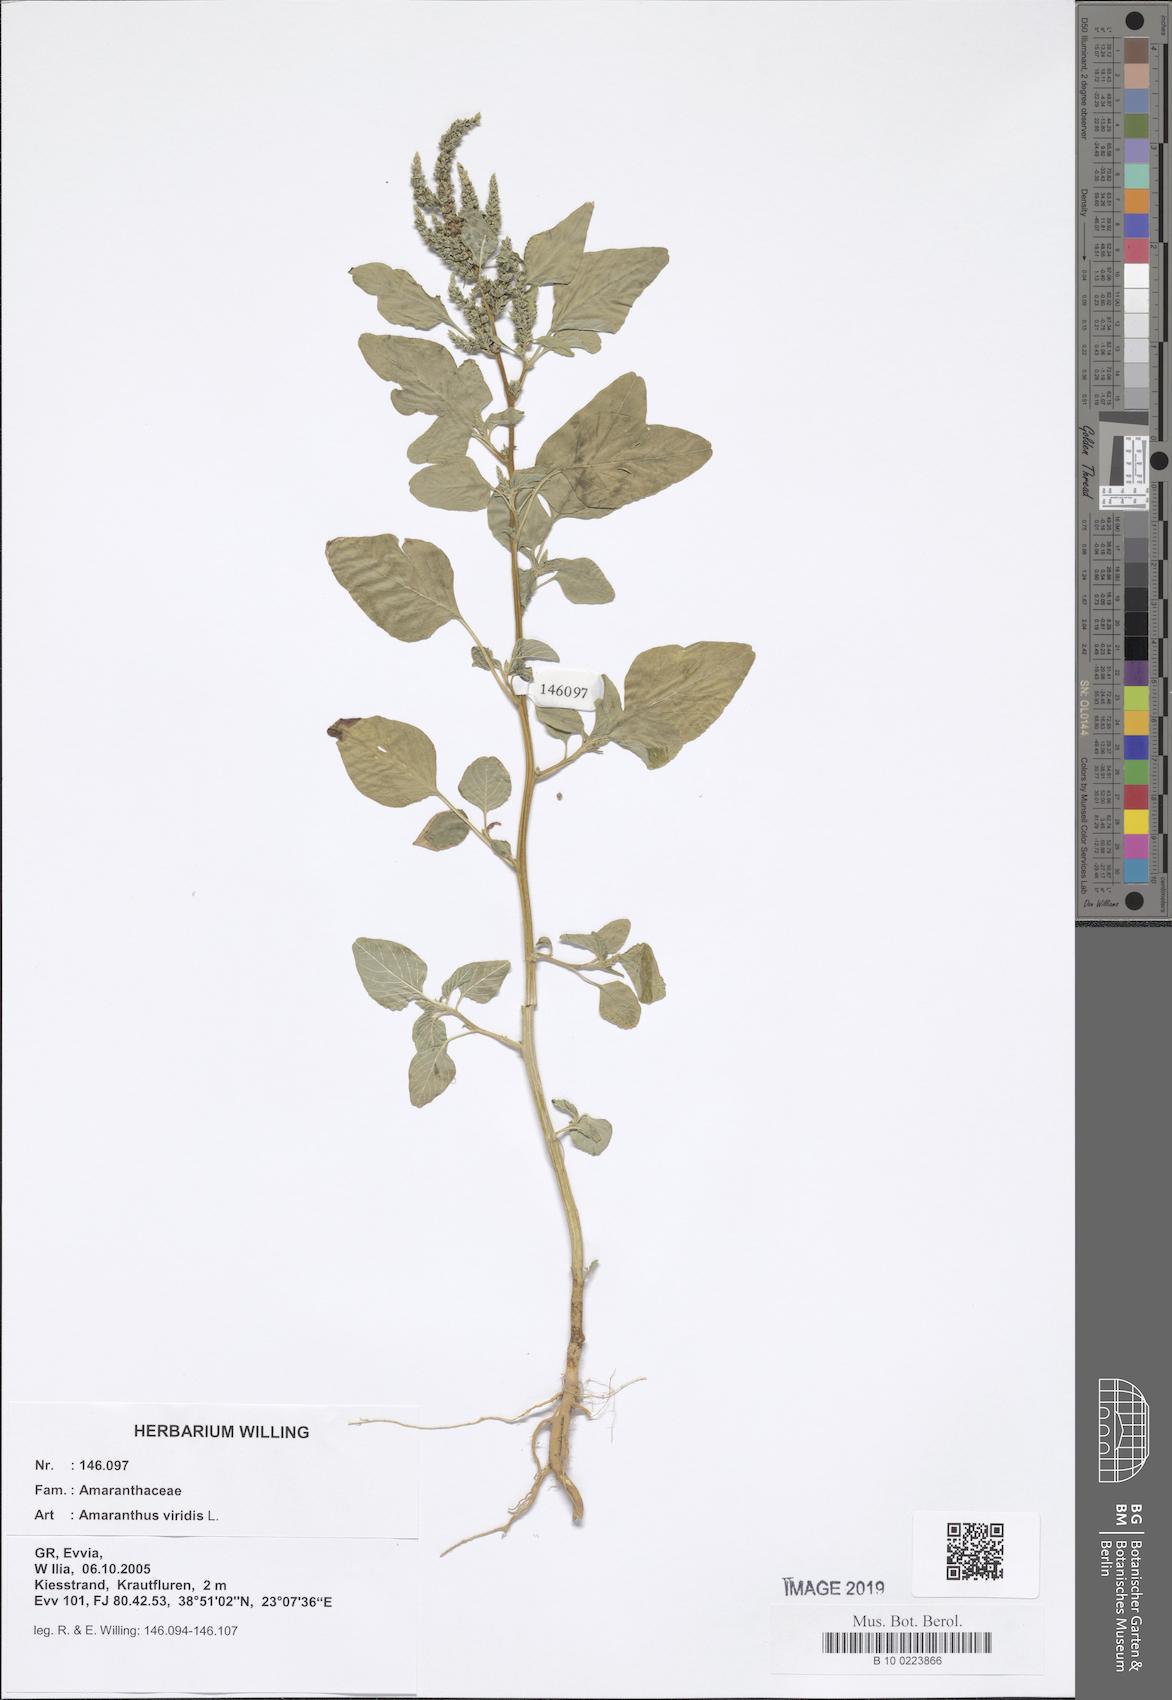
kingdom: Plantae
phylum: Tracheophyta
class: Magnoliopsida
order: Caryophyllales
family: Amaranthaceae
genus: Amaranthus
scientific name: Amaranthus viridis
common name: Slender amaranth
